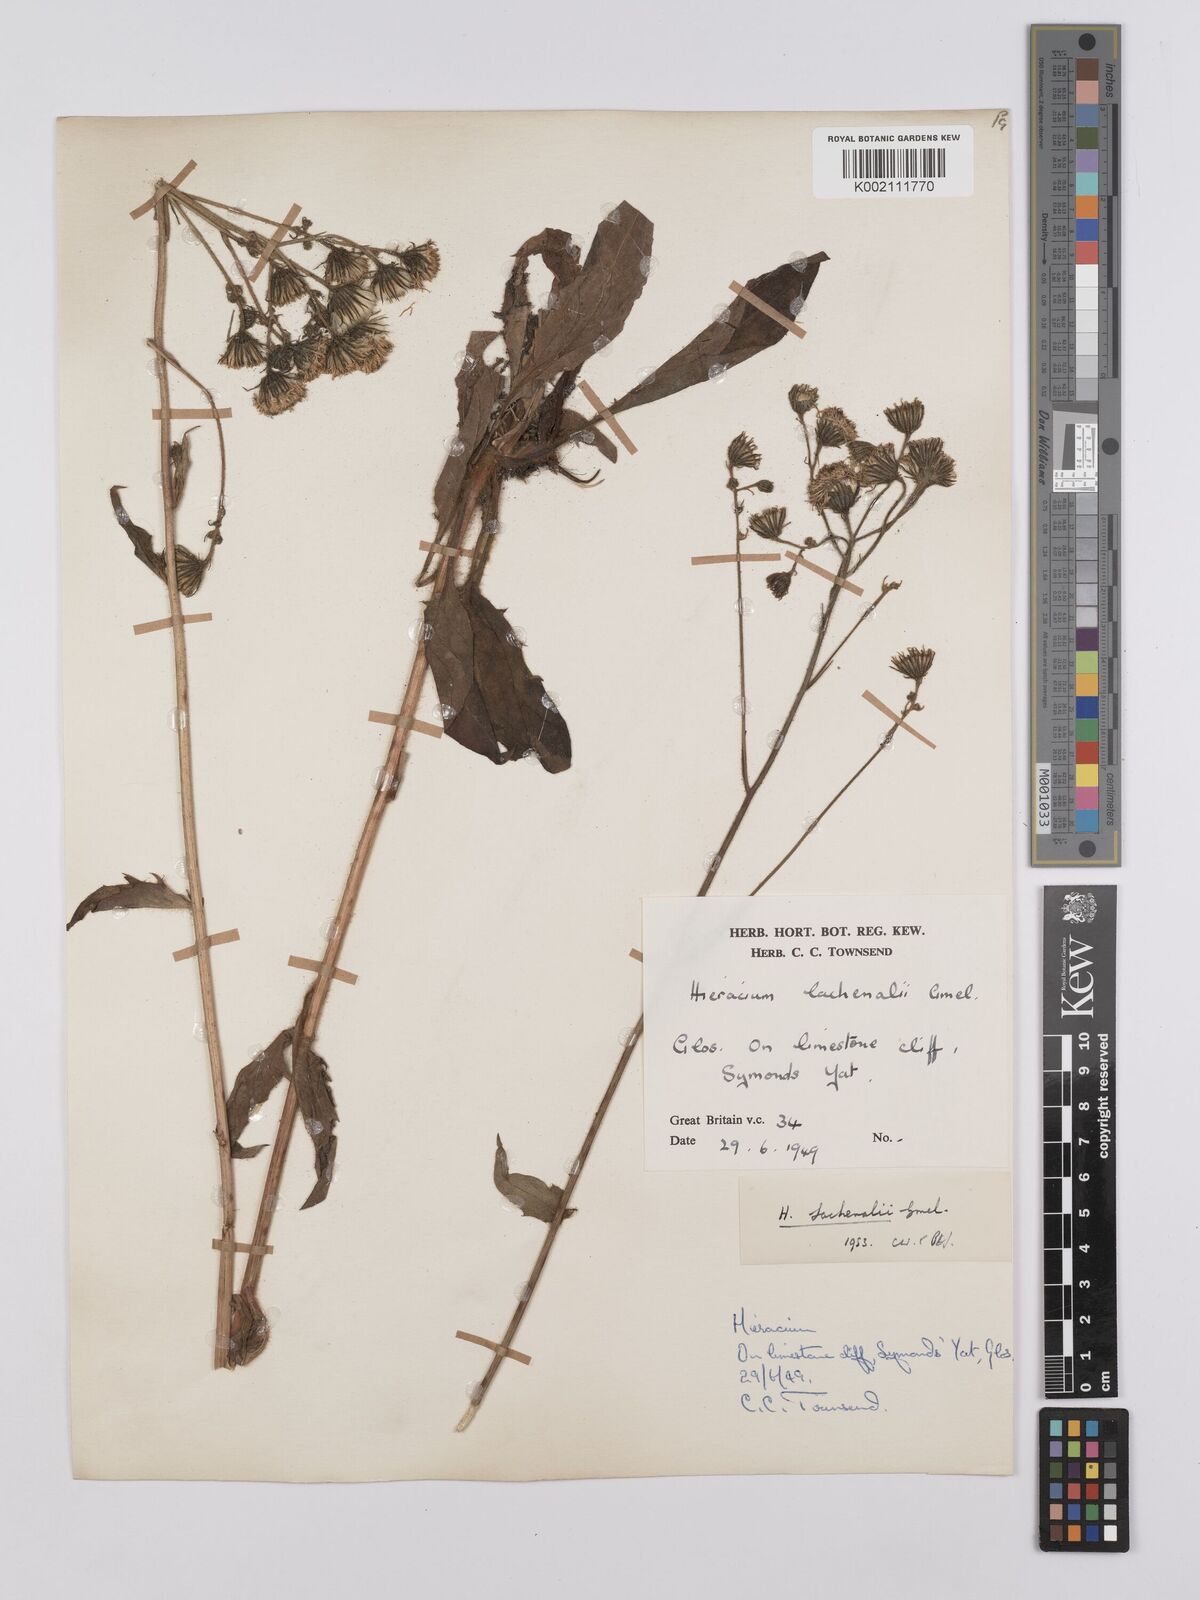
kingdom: Plantae
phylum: Tracheophyta
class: Magnoliopsida
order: Asterales
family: Asteraceae
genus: Hieracium
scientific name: Hieracium lachenalii
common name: Common hawkweed
